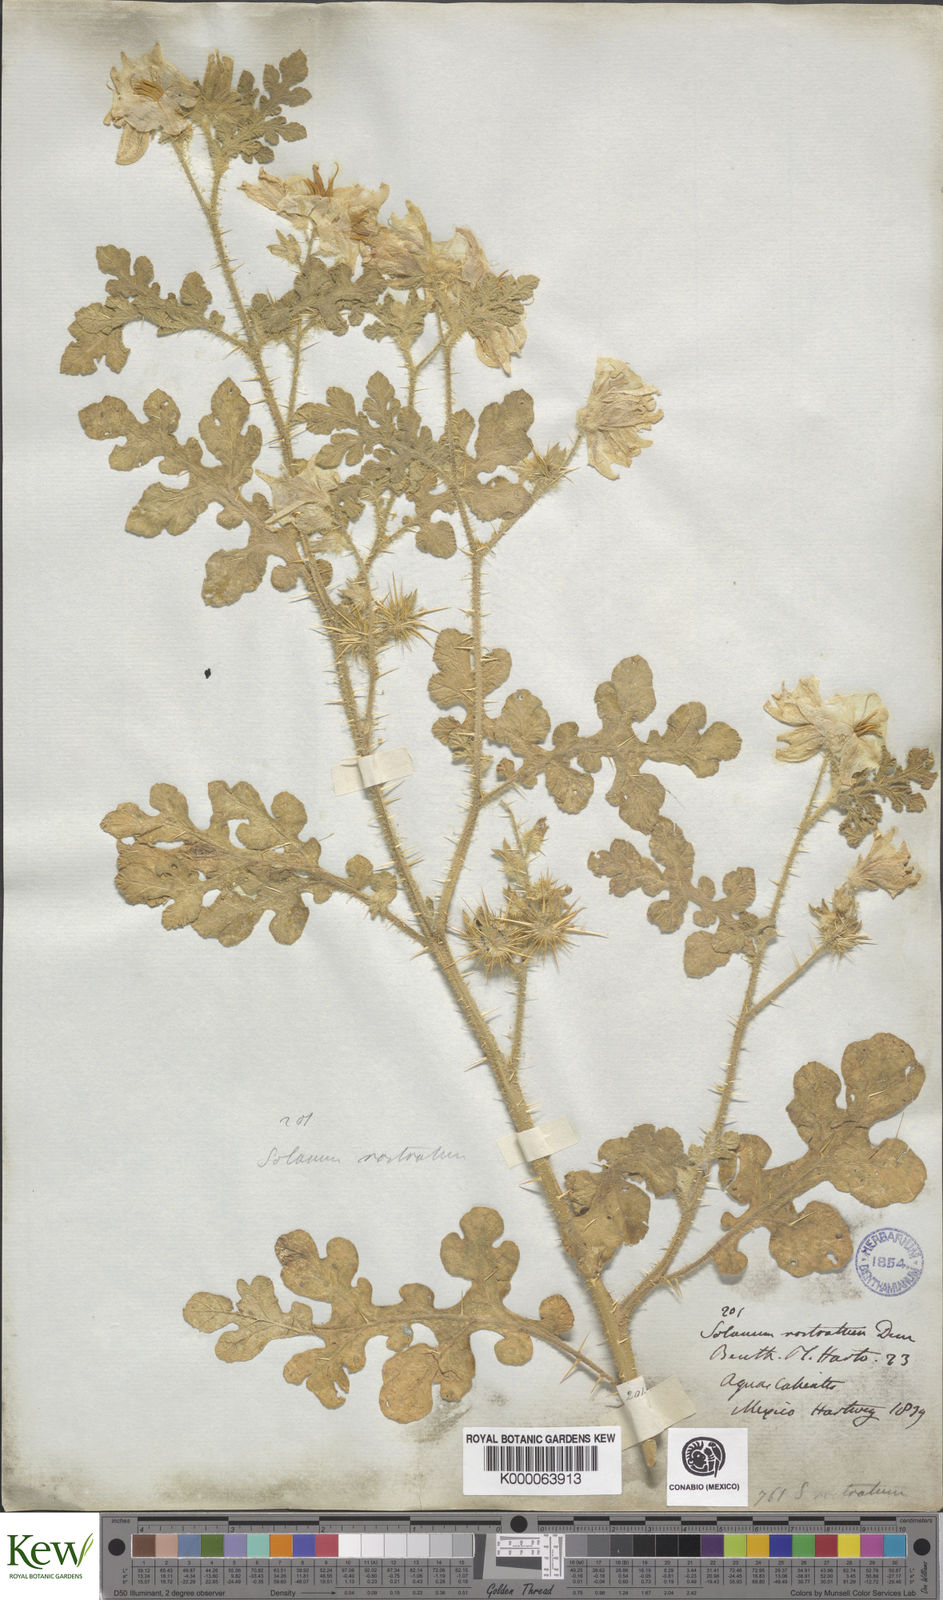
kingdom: Plantae
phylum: Tracheophyta
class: Magnoliopsida
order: Solanales
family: Solanaceae
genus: Solanum
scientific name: Solanum angustifolium
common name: Buffalobur nightshade
